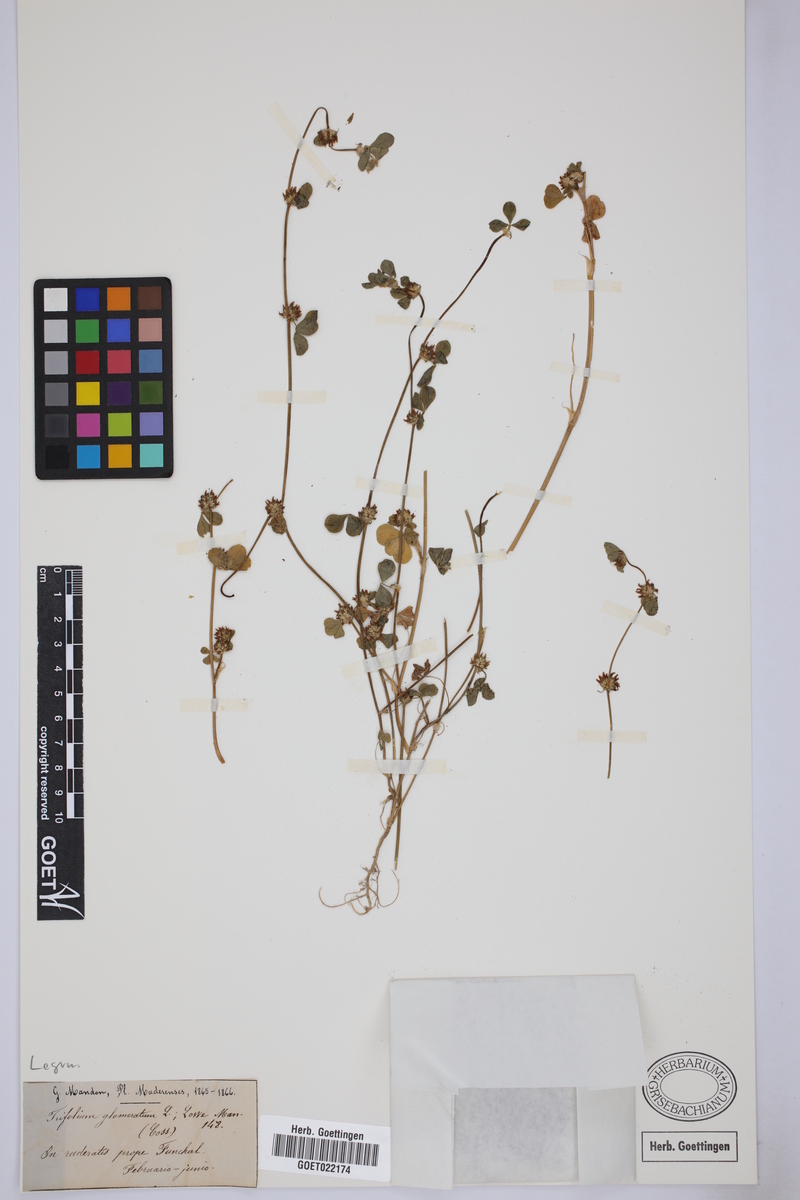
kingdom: Plantae
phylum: Tracheophyta
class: Magnoliopsida
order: Fabales
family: Fabaceae
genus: Trifolium
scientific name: Trifolium glomeratum
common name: Clustered clover
